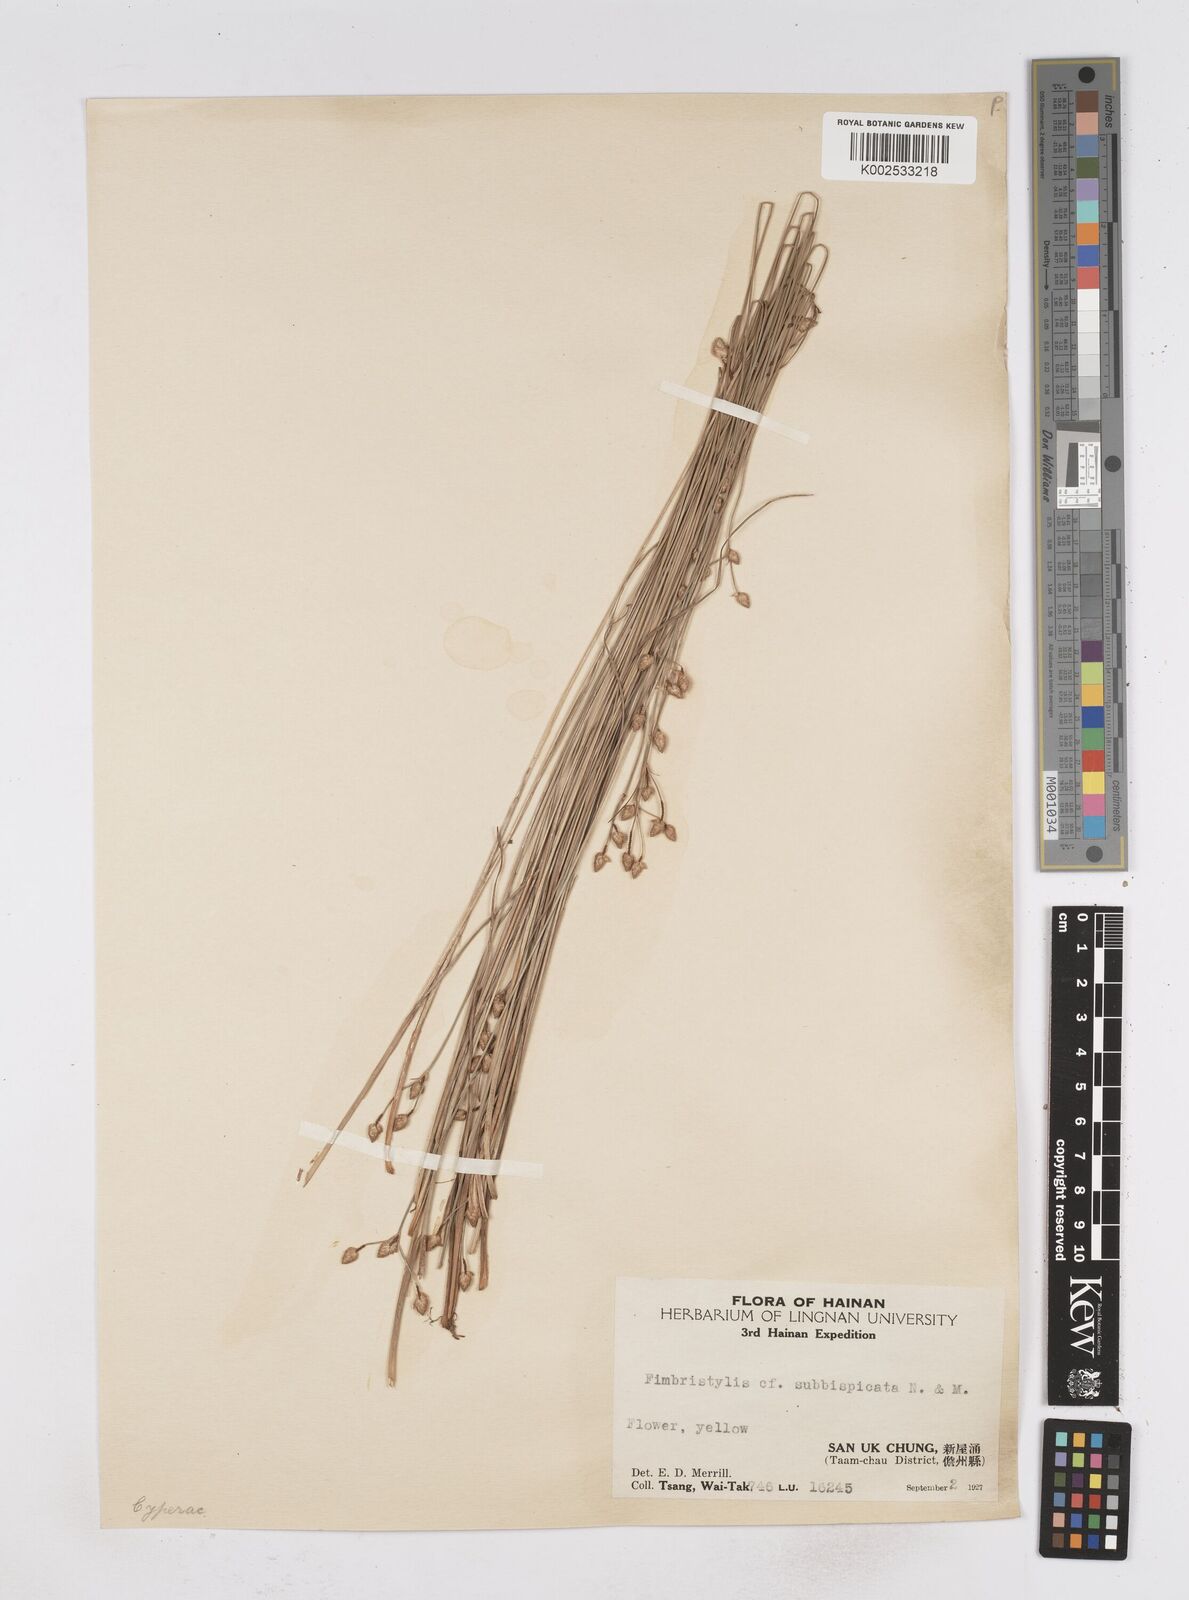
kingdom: Plantae
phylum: Tracheophyta
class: Liliopsida
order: Poales
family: Cyperaceae
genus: Fimbristylis
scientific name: Fimbristylis tristachya
